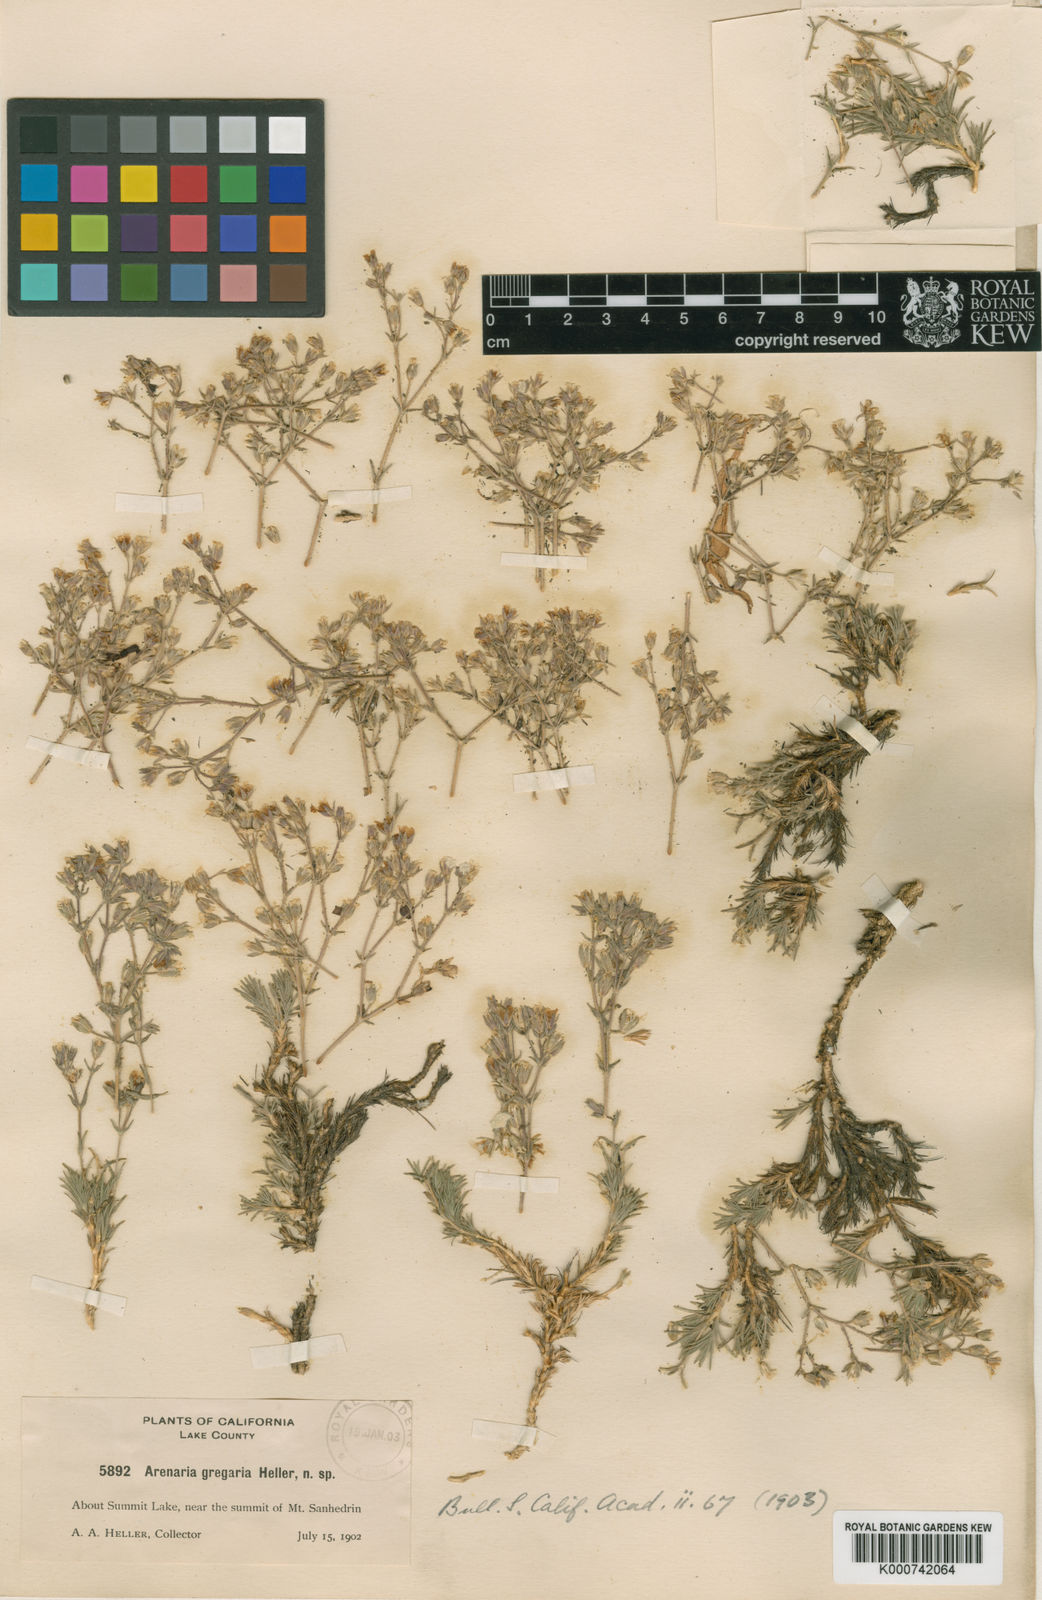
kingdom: Plantae
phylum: Tracheophyta
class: Magnoliopsida
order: Caryophyllales
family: Caryophyllaceae
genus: Minuartia
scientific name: Minuartia
